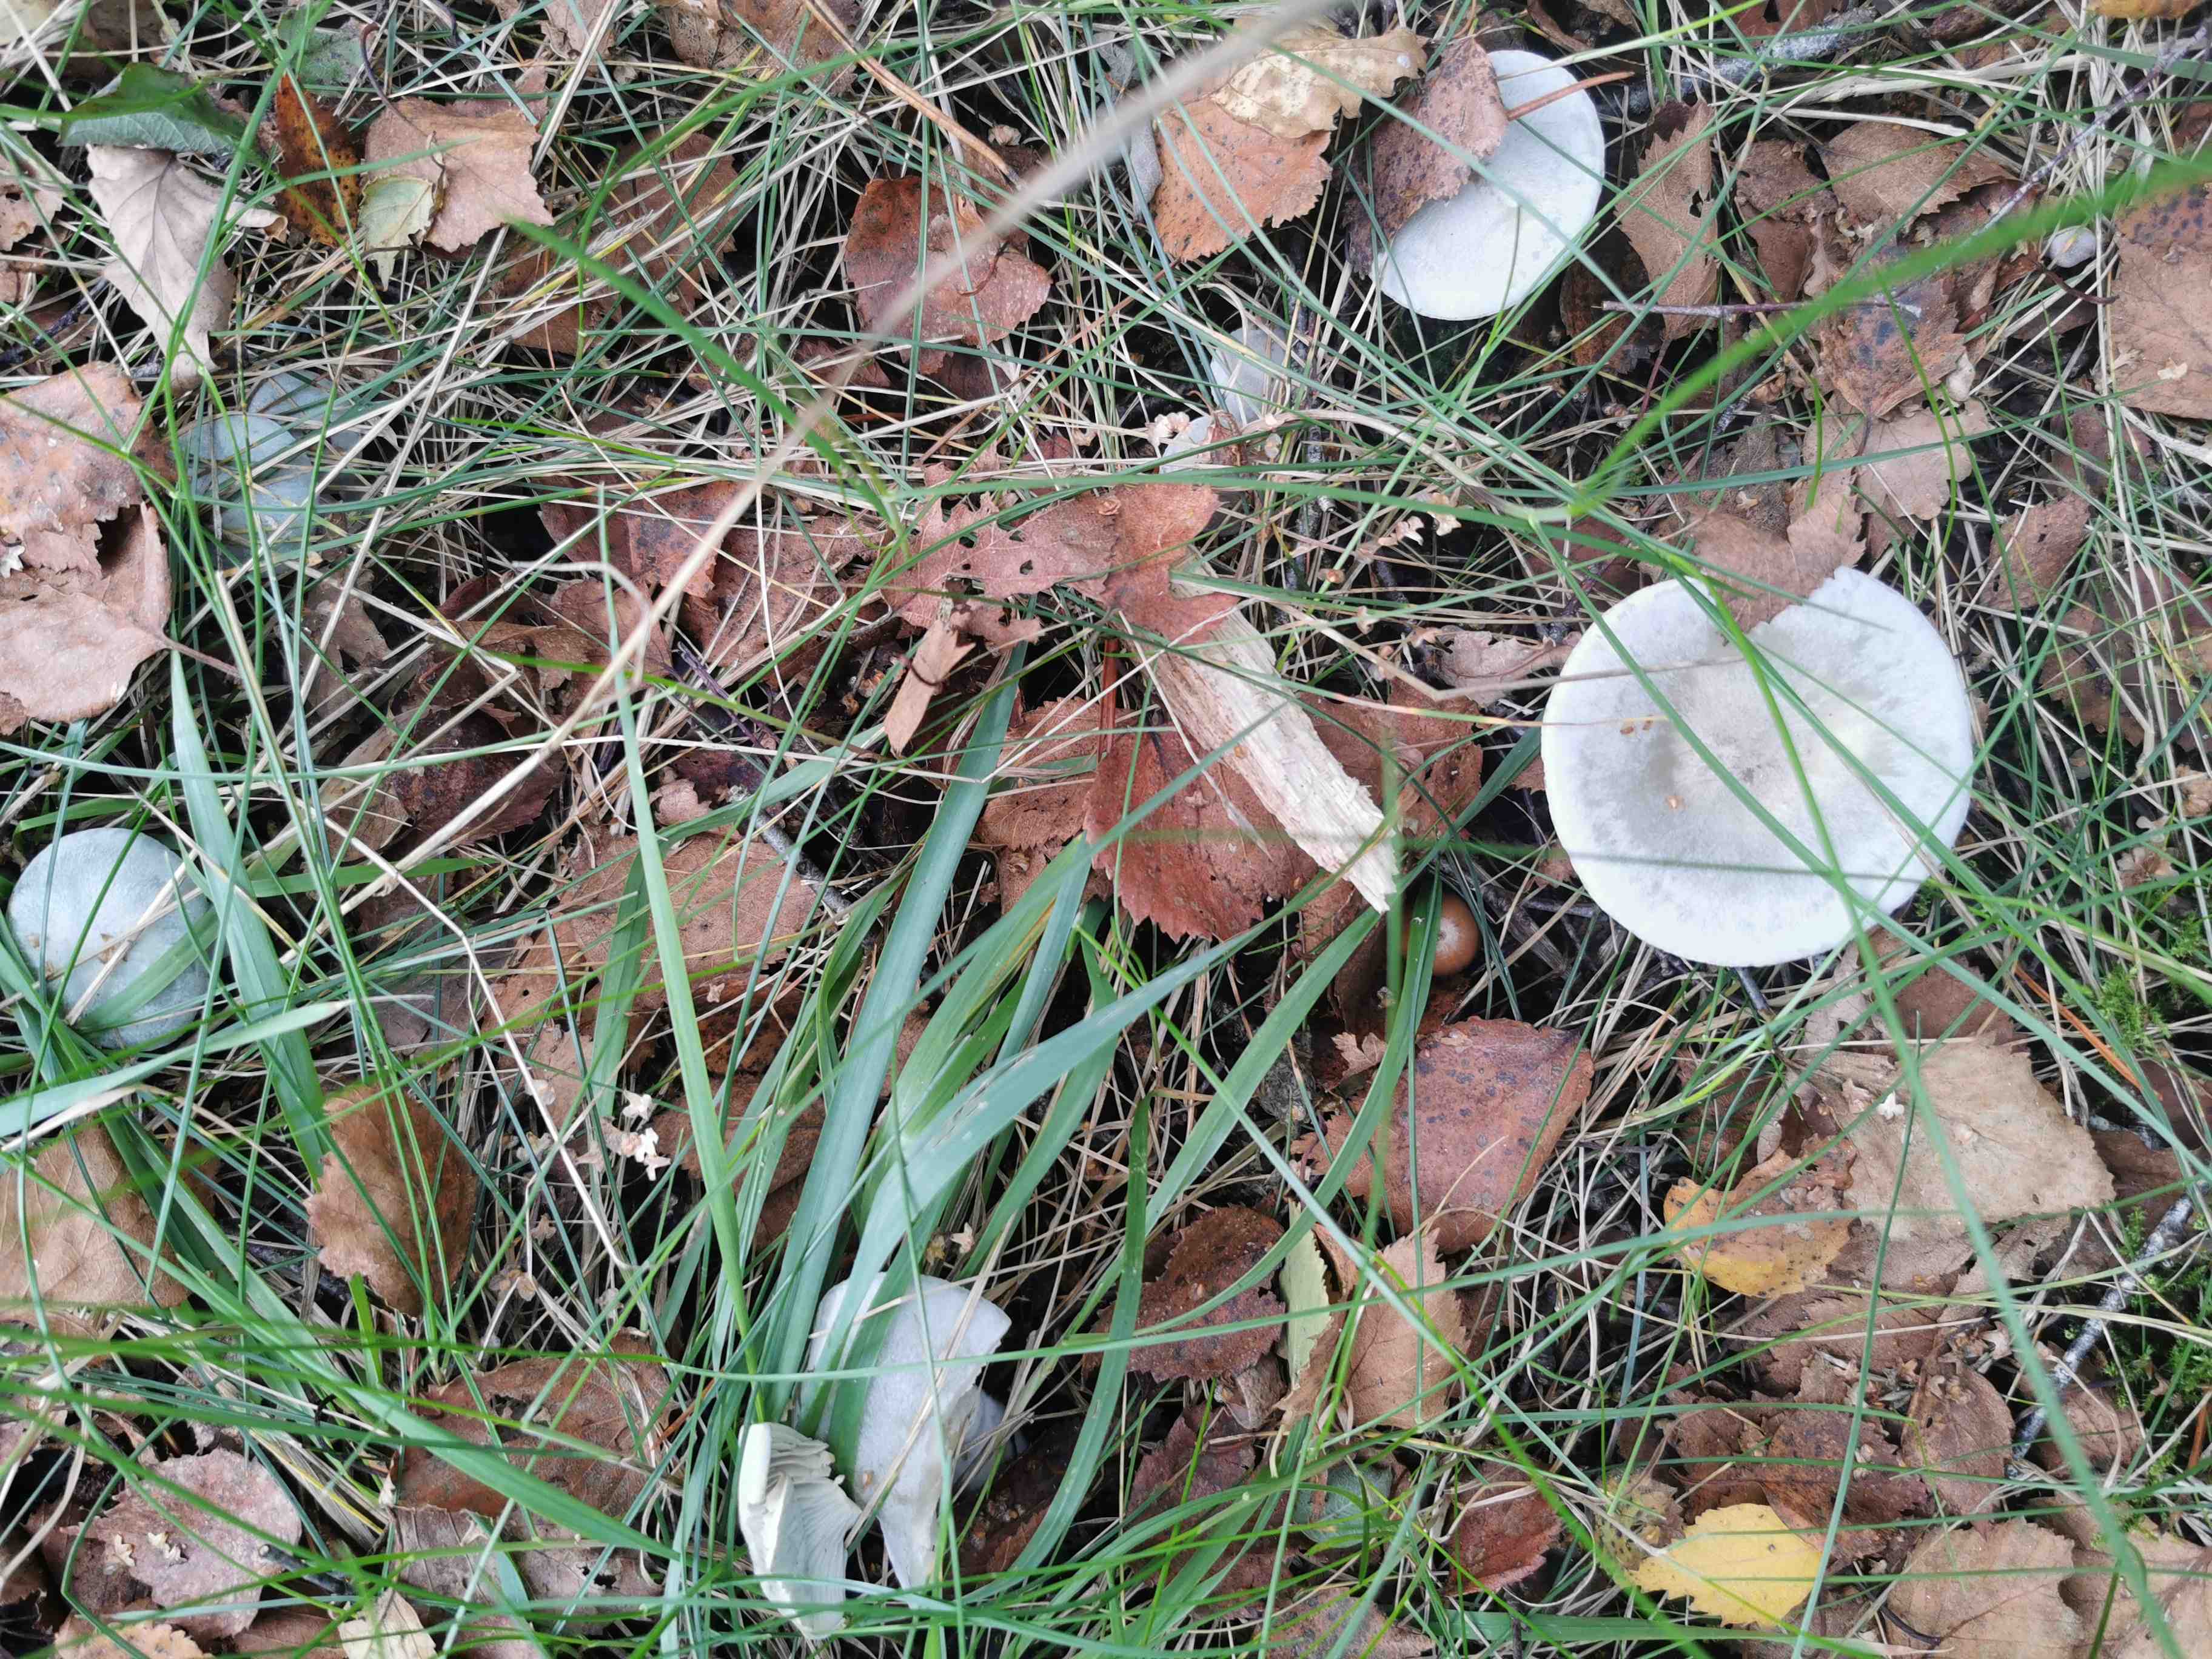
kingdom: Fungi
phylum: Basidiomycota
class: Agaricomycetes
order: Agaricales
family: Tricholomataceae
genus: Clitocybe
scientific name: Clitocybe odora
